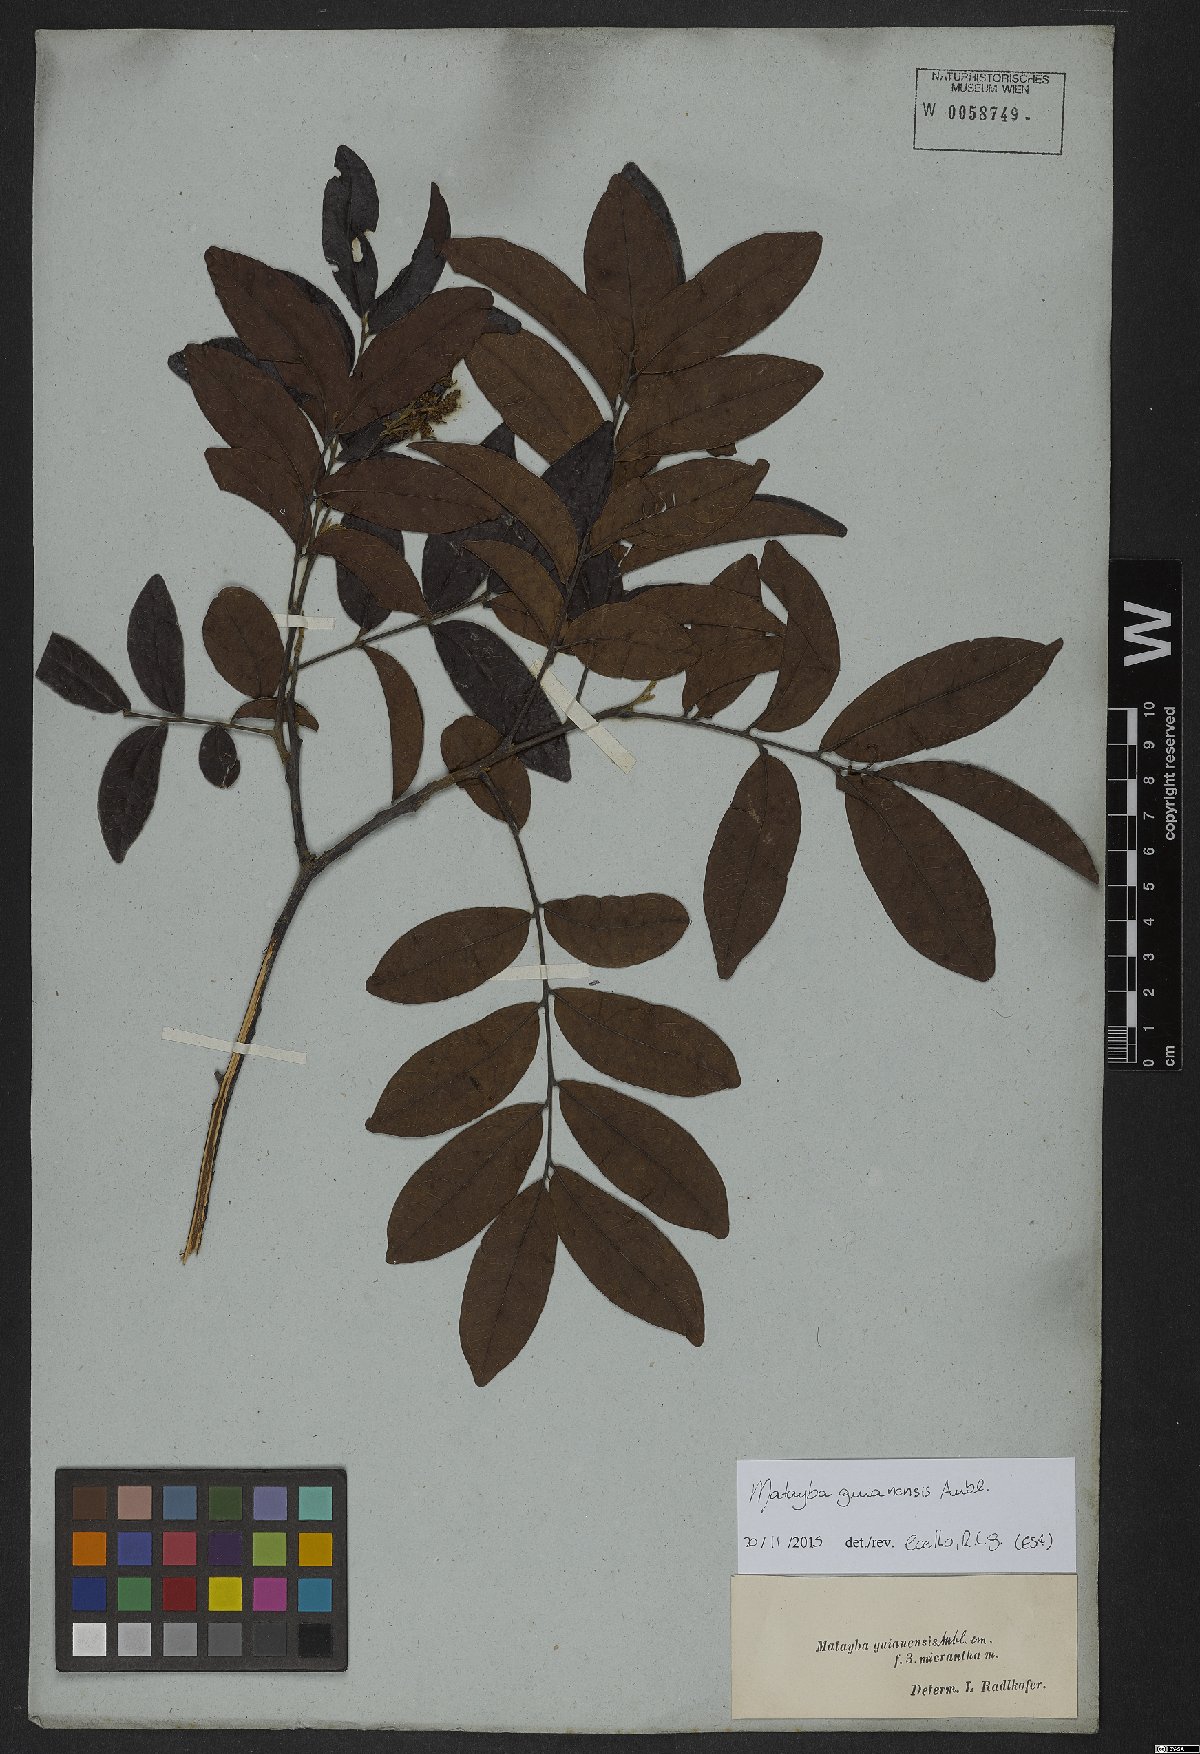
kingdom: Plantae
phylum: Tracheophyta
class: Magnoliopsida
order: Sapindales
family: Sapindaceae
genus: Matayba
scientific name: Matayba guianensis
